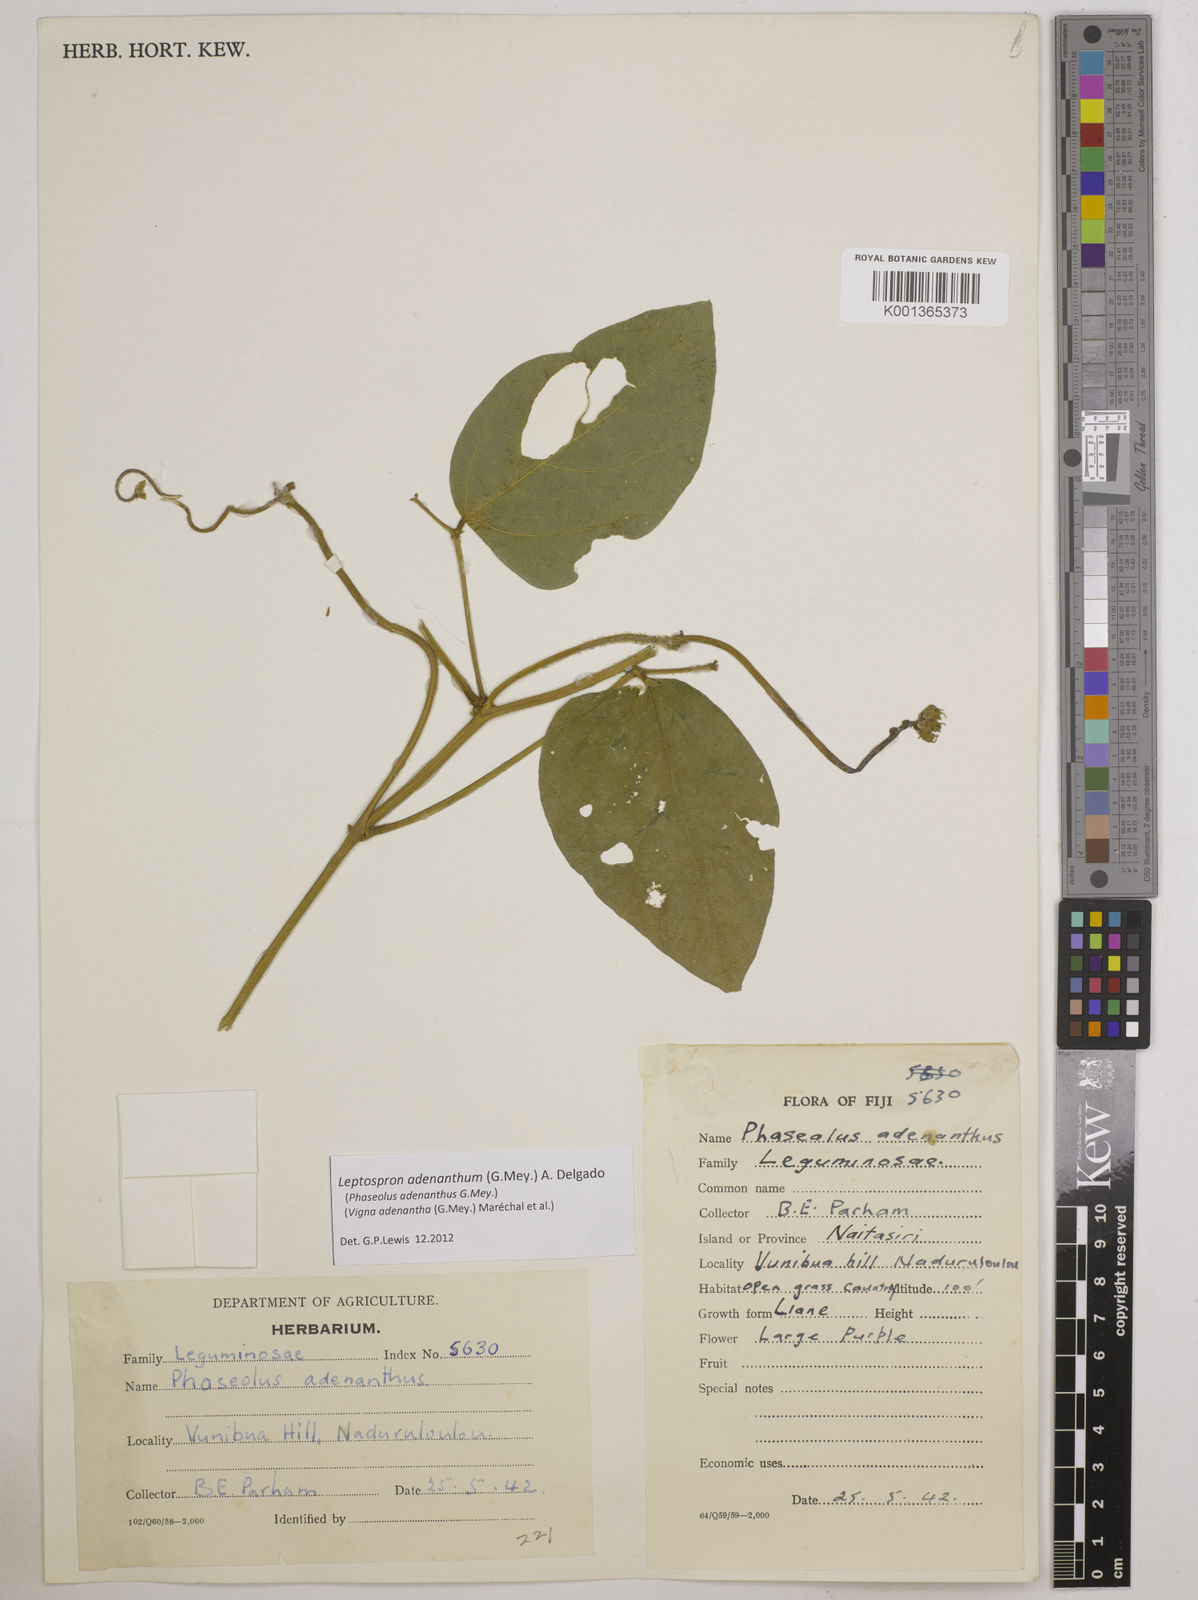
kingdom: Plantae
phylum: Tracheophyta
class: Magnoliopsida
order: Fabales
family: Fabaceae
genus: Leptospron
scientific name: Leptospron adenanthum
